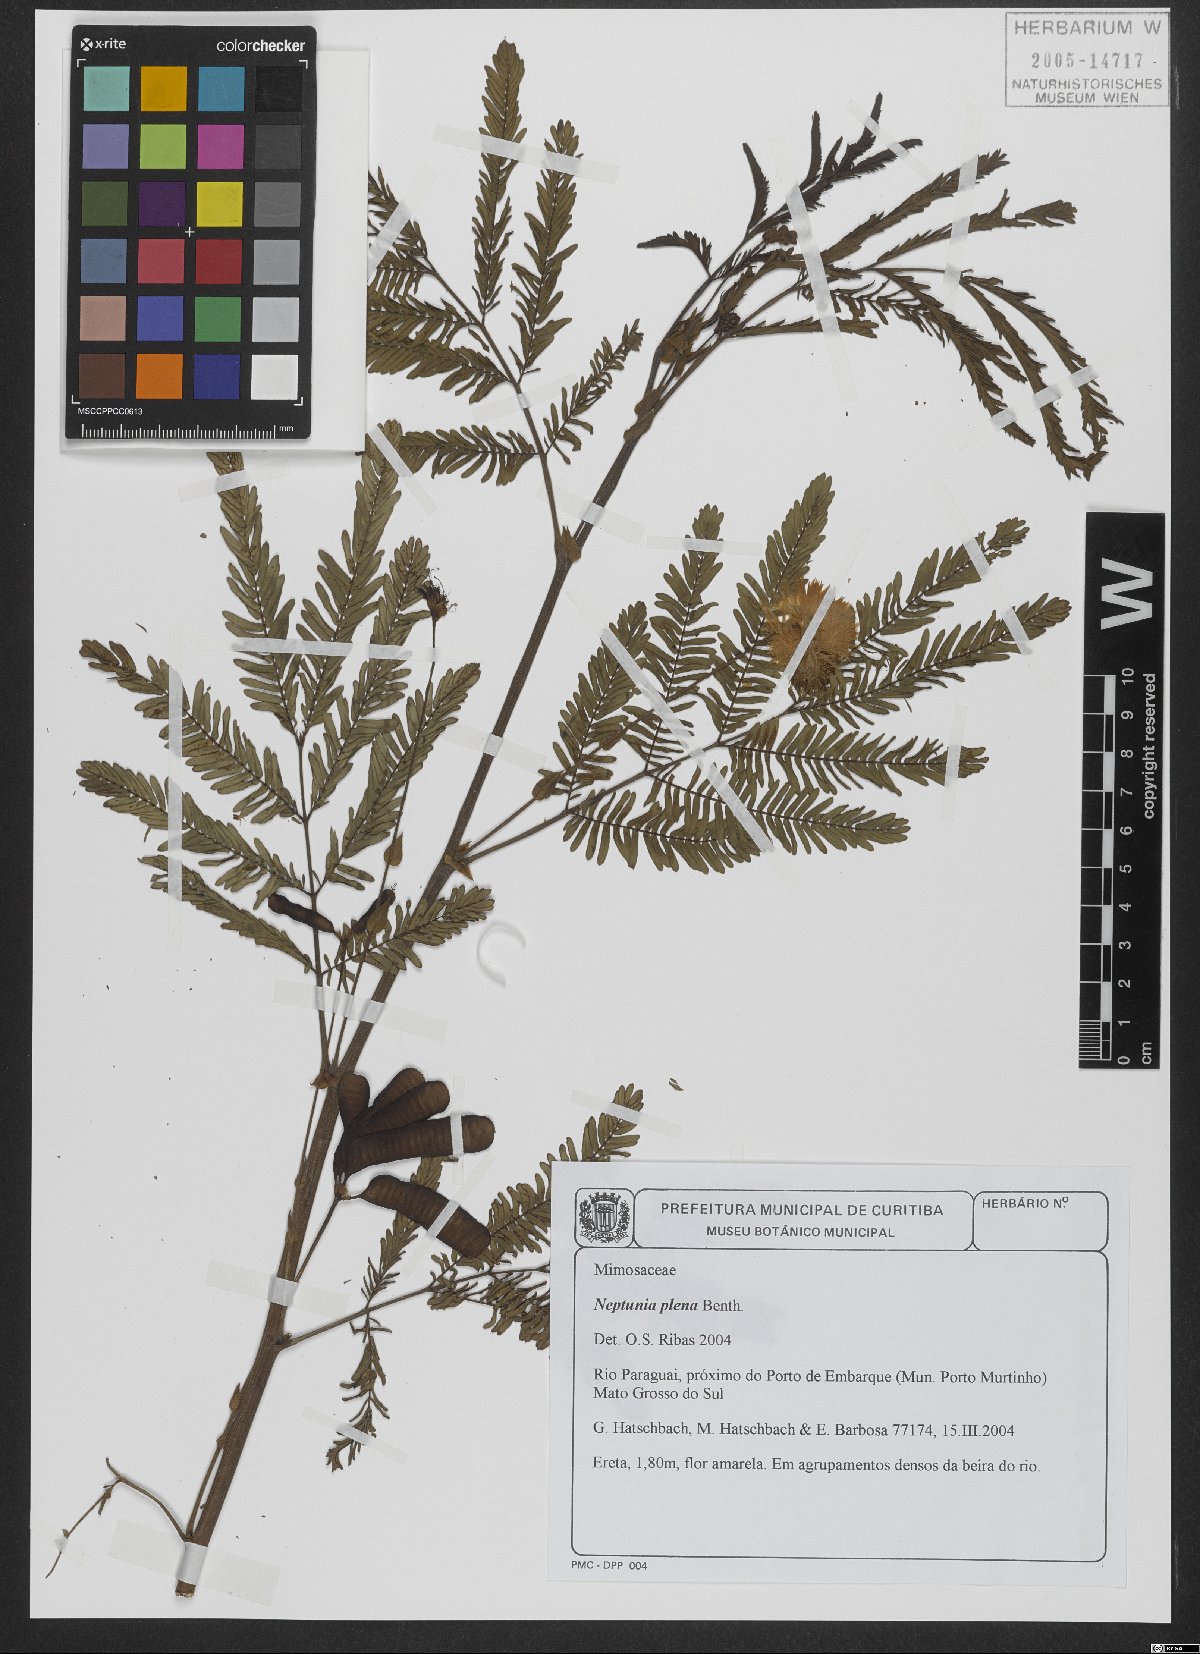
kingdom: Plantae
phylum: Tracheophyta
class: Magnoliopsida
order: Fabales
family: Fabaceae
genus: Neptunia
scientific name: Neptunia plena
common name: Dead and awake
